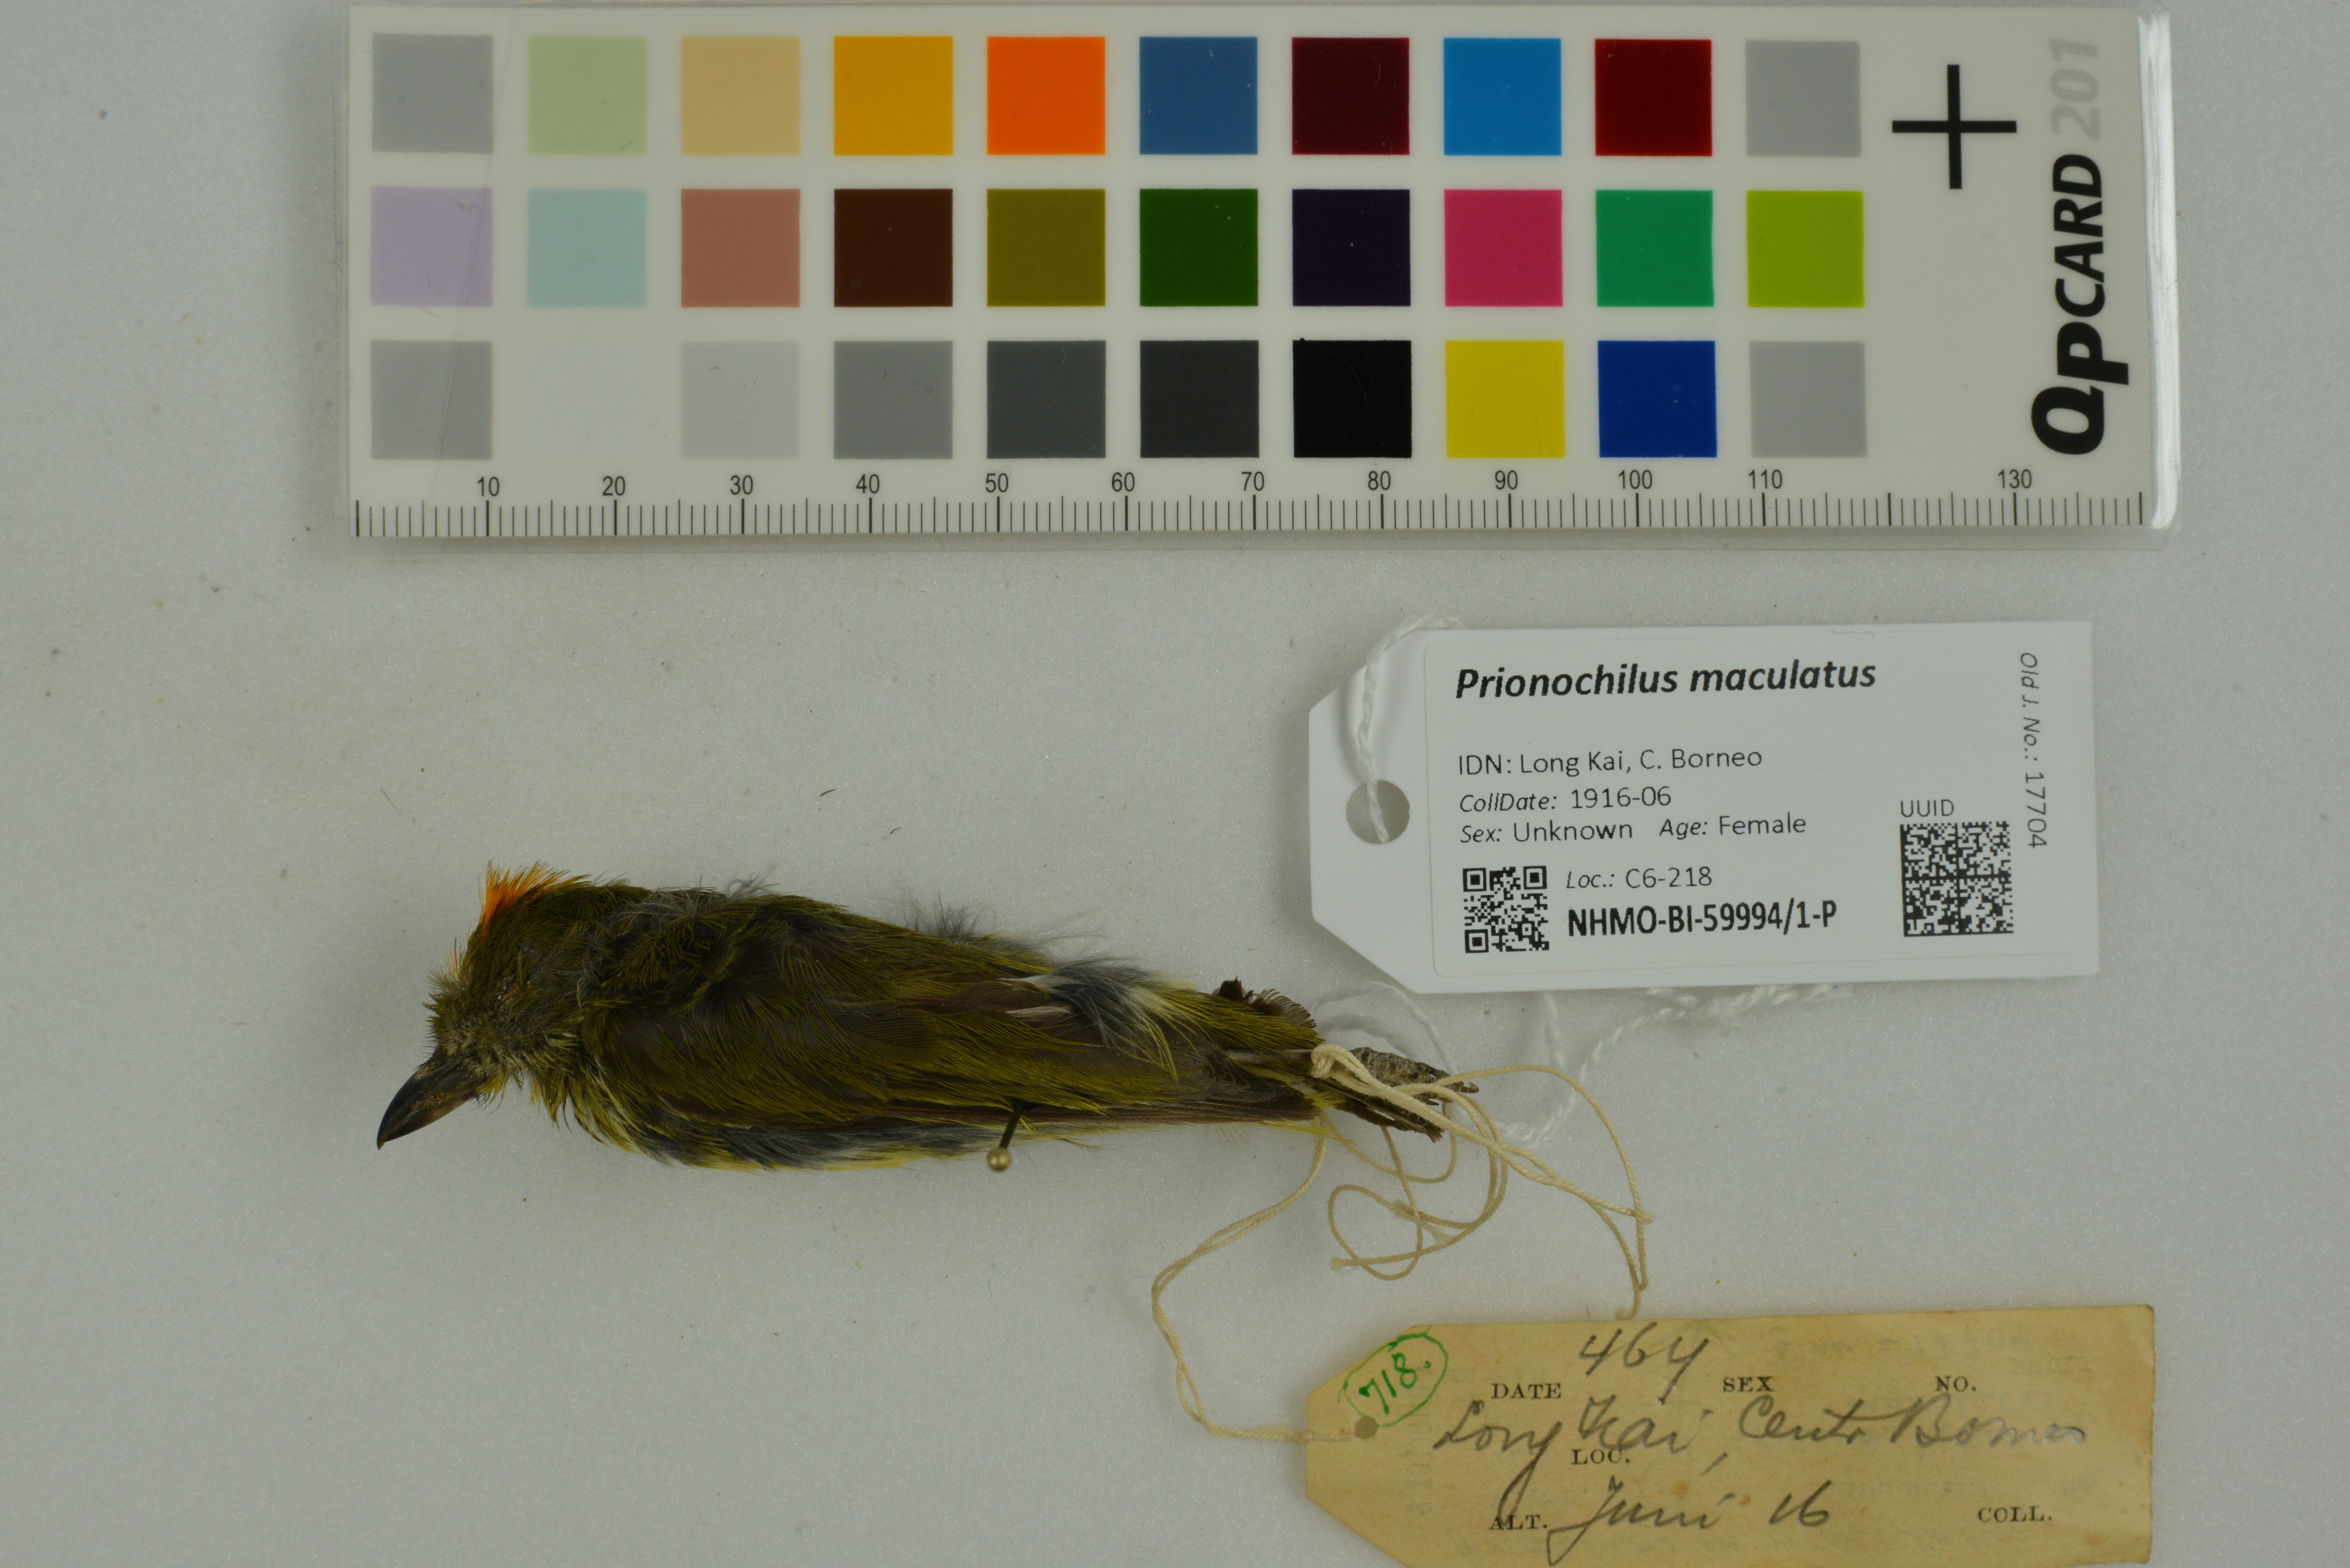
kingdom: Animalia
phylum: Chordata
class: Aves
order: Passeriformes
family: Dicaeidae
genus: Prionochilus
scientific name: Prionochilus maculatus
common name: Yellow-breasted flowerpecker
